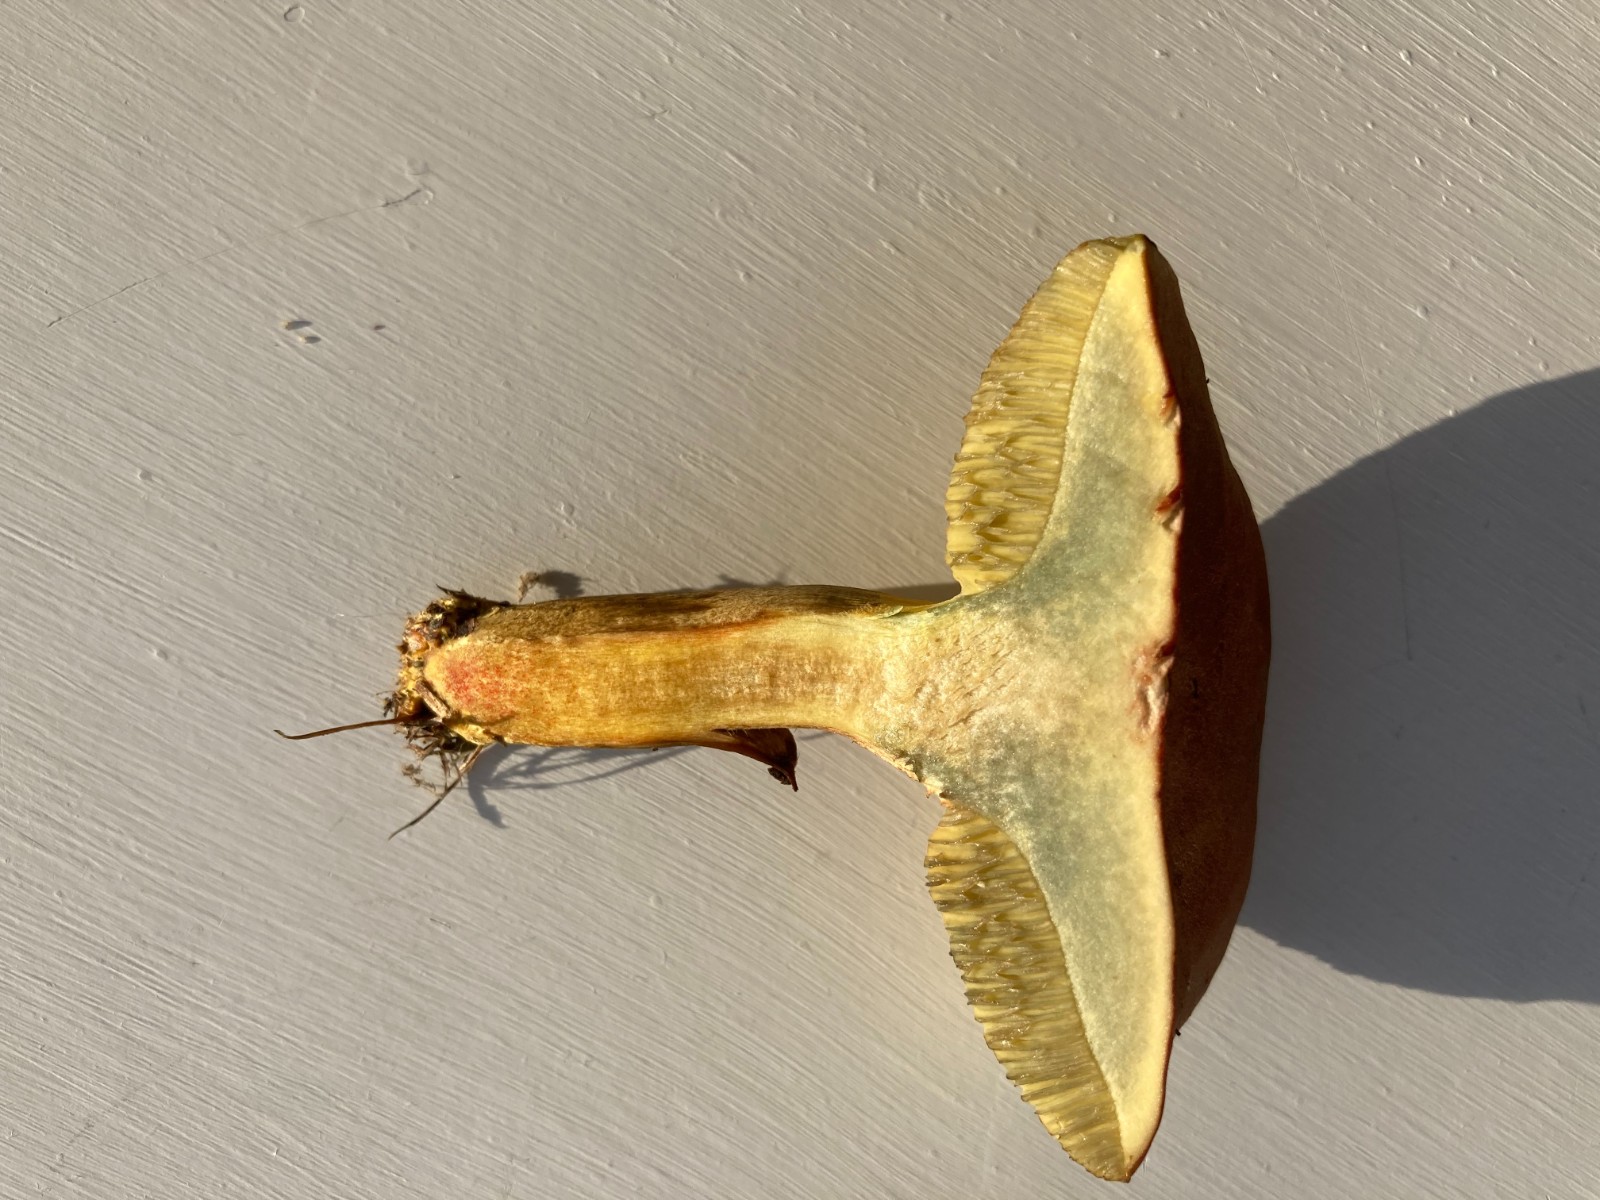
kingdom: Fungi
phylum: Basidiomycota
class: Agaricomycetes
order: Boletales
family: Boletaceae
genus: Hortiboletus
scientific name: Hortiboletus rubellus
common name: blodrød rørhat
